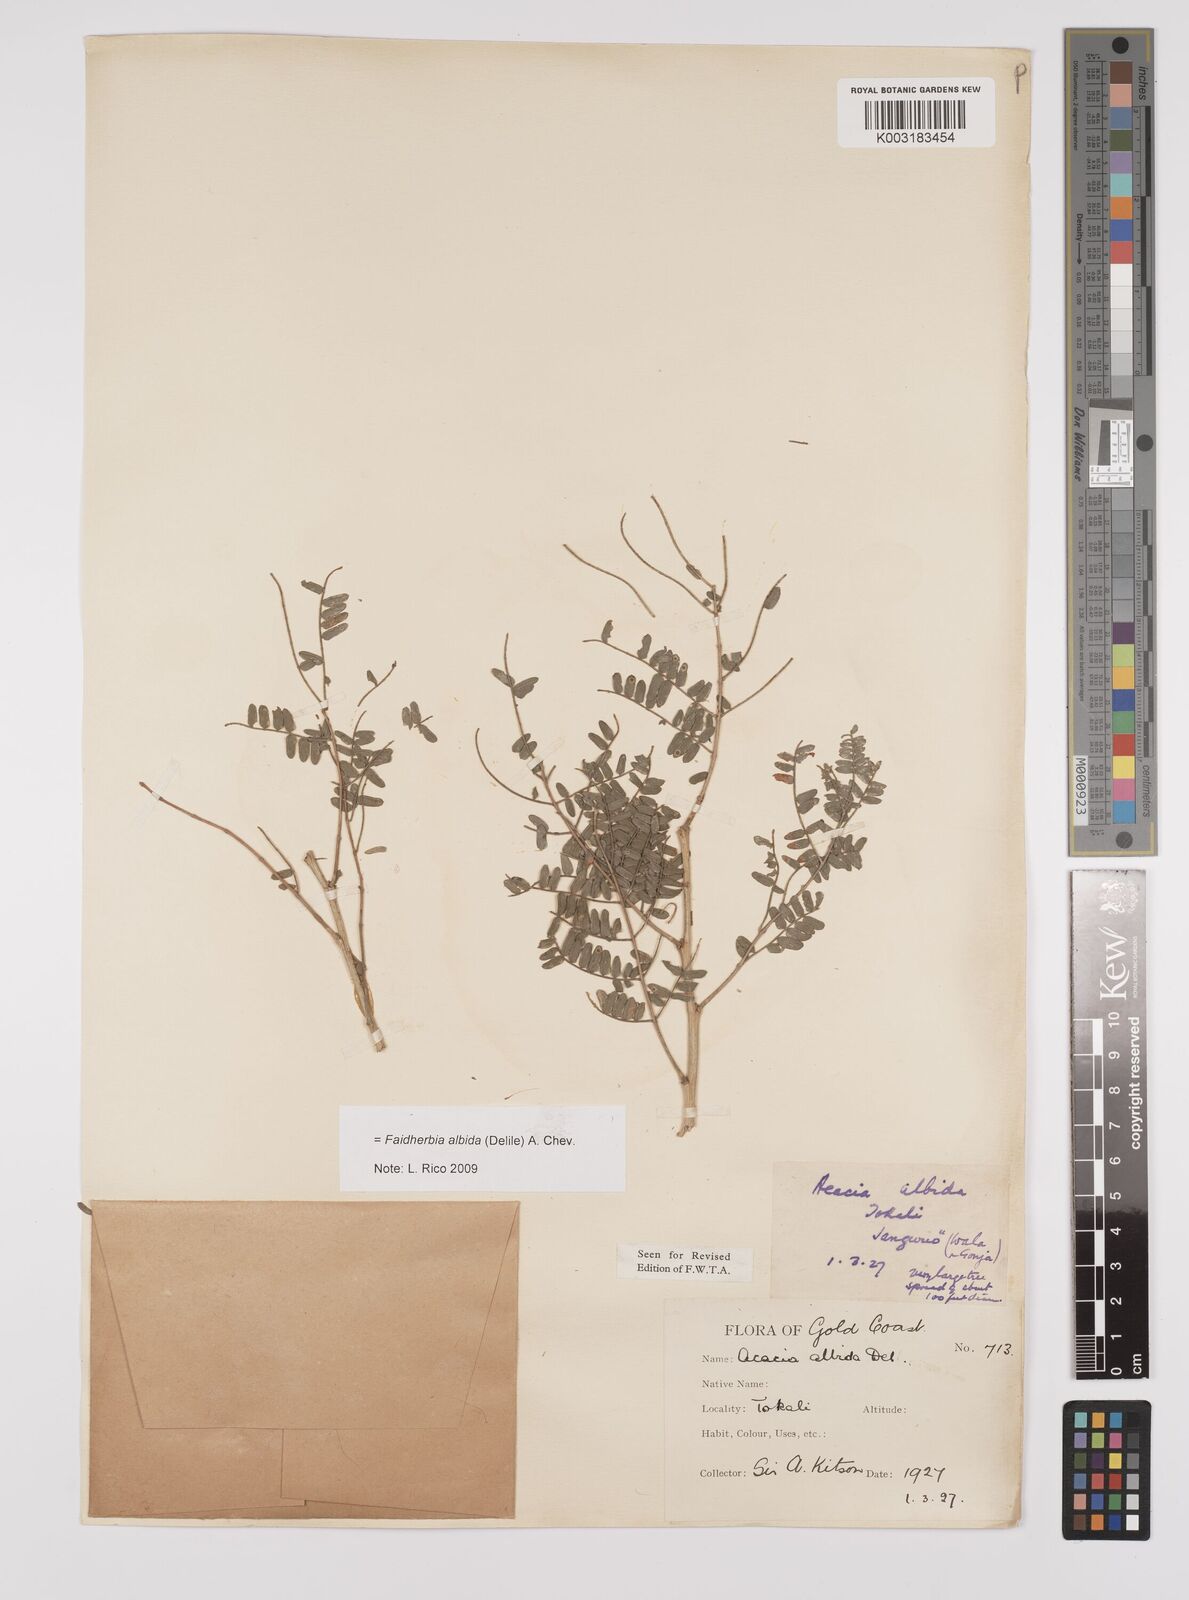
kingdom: Plantae
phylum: Tracheophyta
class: Magnoliopsida
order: Fabales
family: Fabaceae
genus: Faidherbia
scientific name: Faidherbia albida
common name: Anatree
